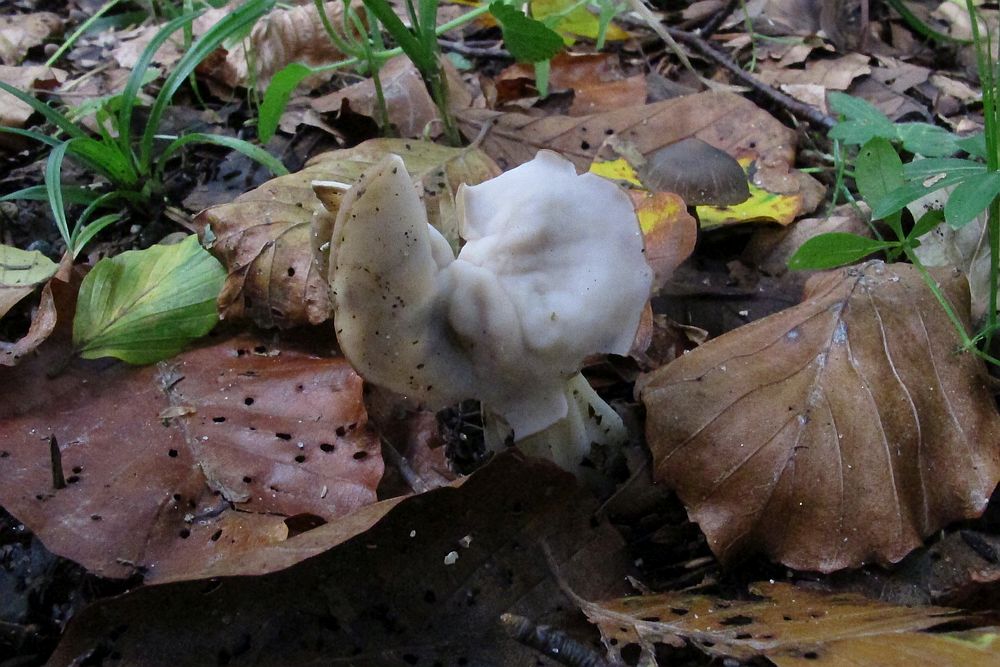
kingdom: Fungi
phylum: Ascomycota
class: Pezizomycetes
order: Pezizales
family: Helvellaceae
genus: Helvella
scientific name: Helvella crispa
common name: kruset foldhat
